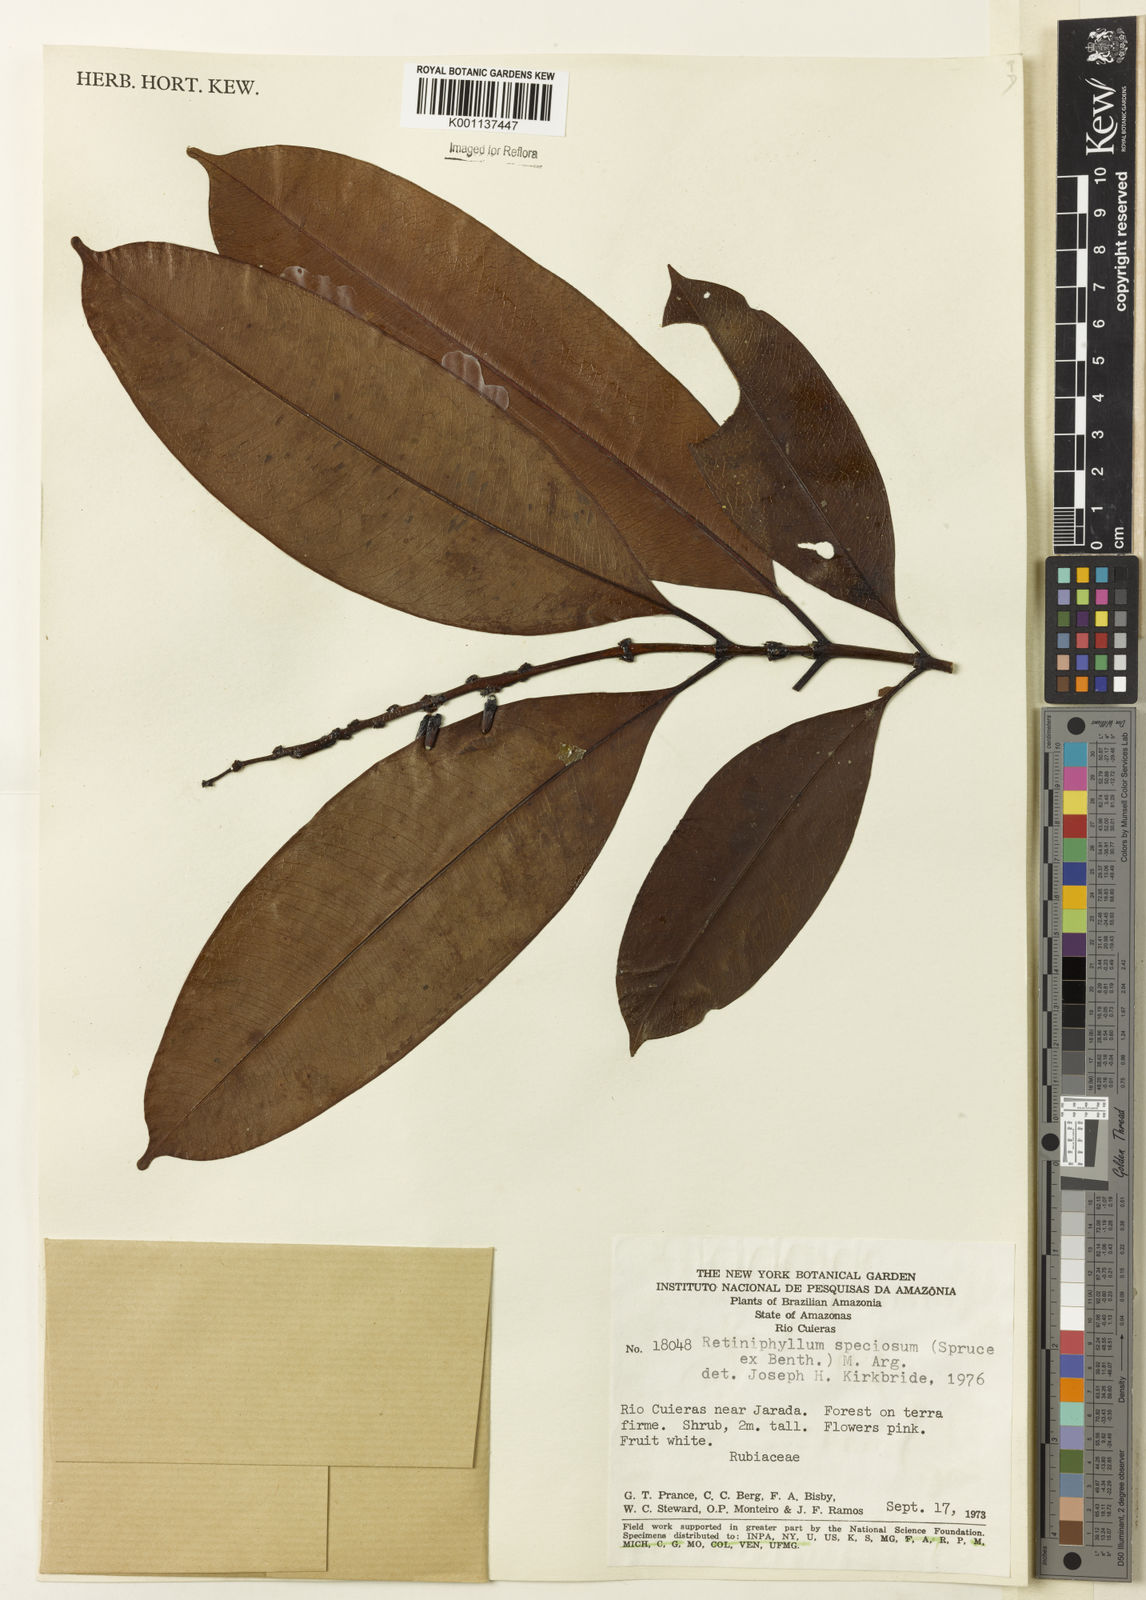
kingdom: Plantae
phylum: Tracheophyta
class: Magnoliopsida
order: Gentianales
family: Rubiaceae
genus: Retiniphyllum
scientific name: Retiniphyllum
